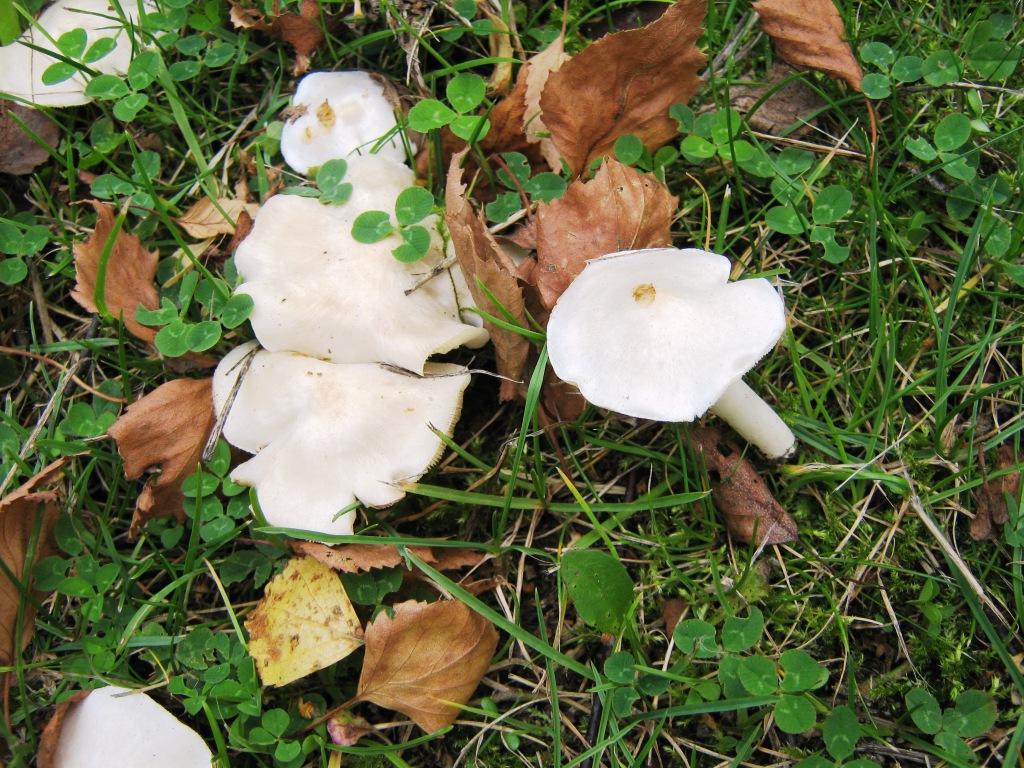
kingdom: Fungi
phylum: Basidiomycota
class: Agaricomycetes
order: Agaricales
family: Tricholomataceae
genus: Tricholoma
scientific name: Tricholoma argyraceum
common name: spids ridderhat
